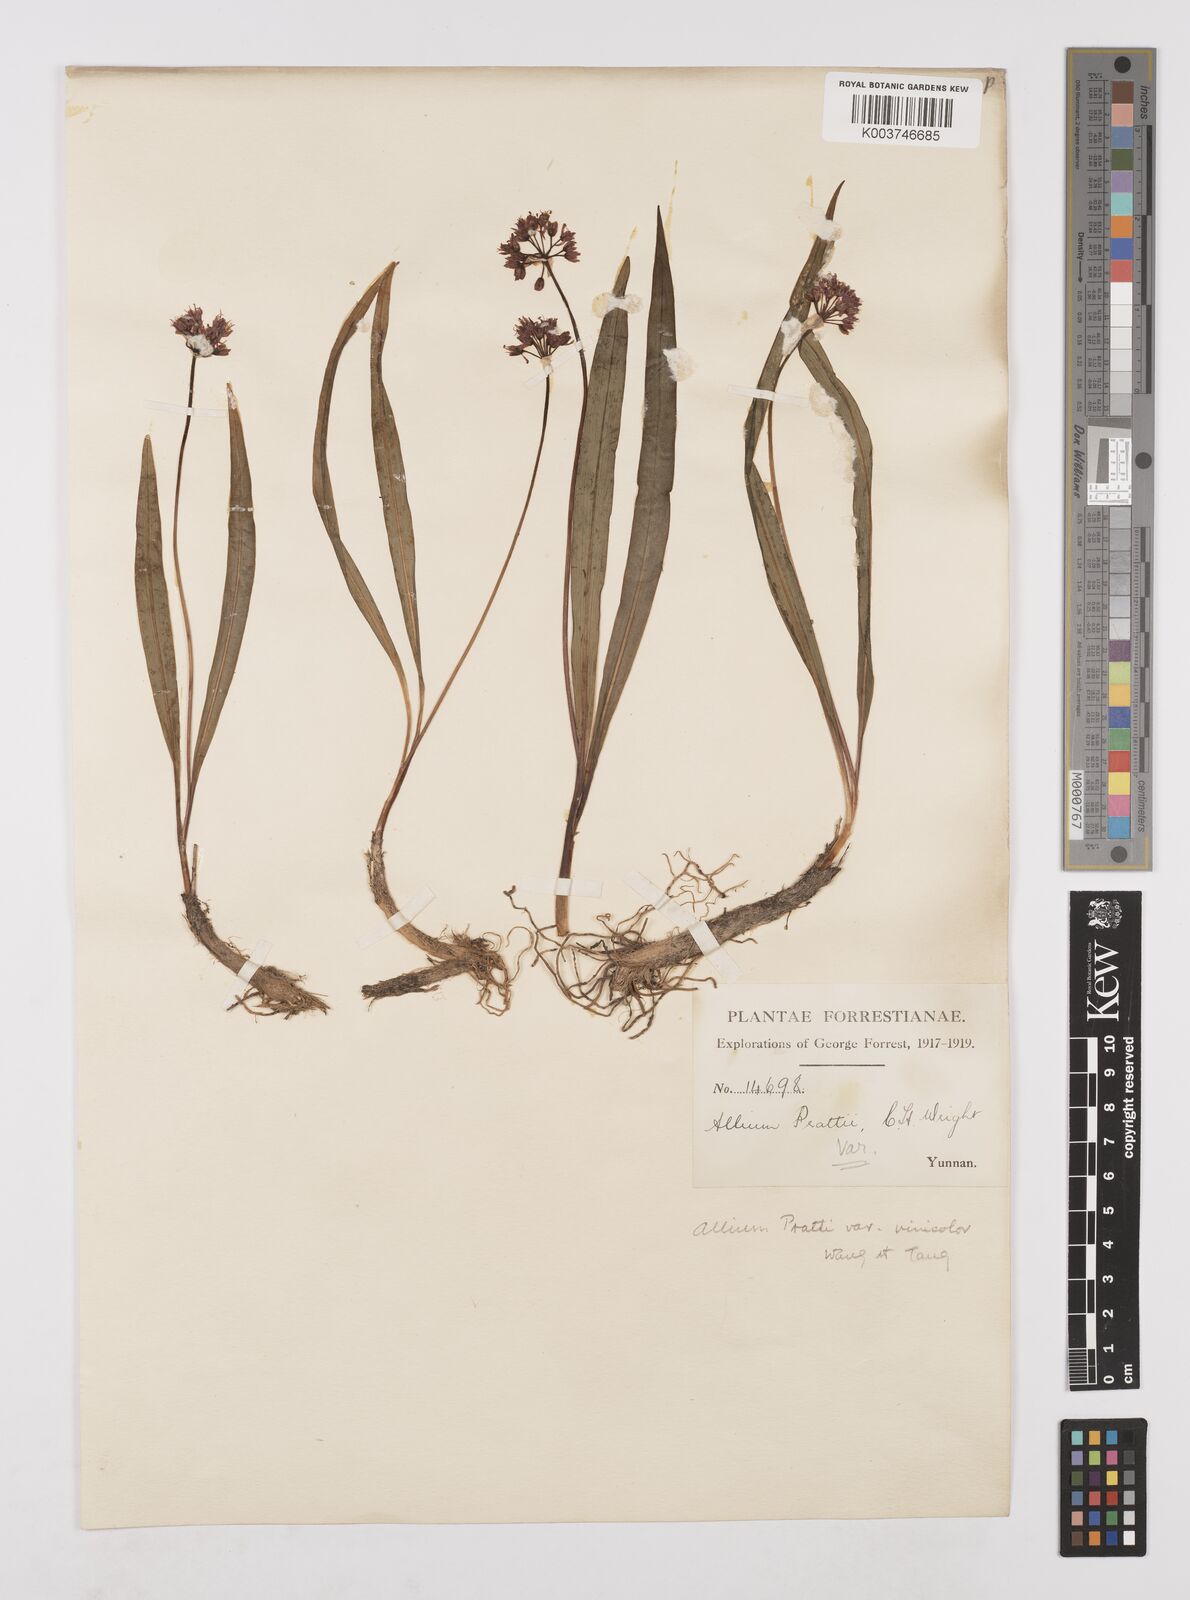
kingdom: Plantae
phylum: Tracheophyta
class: Liliopsida
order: Asparagales
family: Amaryllidaceae
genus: Allium
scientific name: Allium prattii
